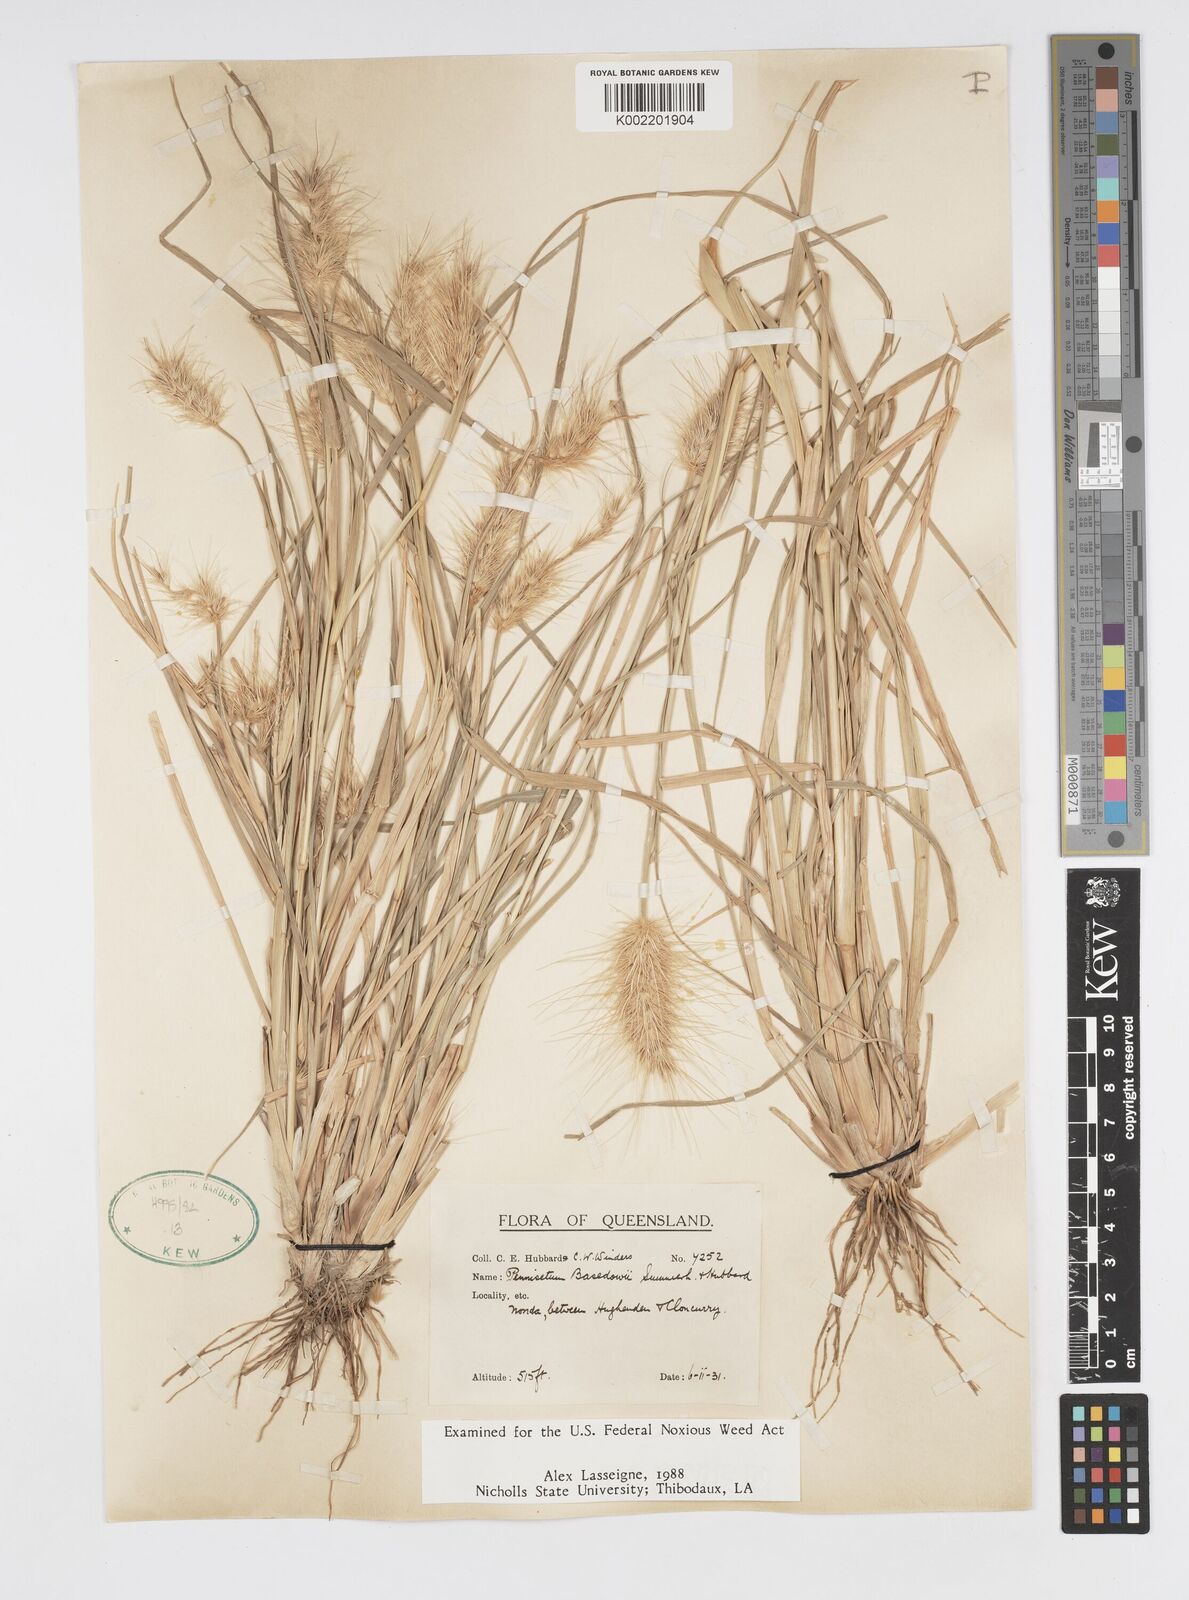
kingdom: Plantae
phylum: Tracheophyta
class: Liliopsida
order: Poales
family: Poaceae
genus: Cenchrus
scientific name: Cenchrus basedowii
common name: Asbestos grass
